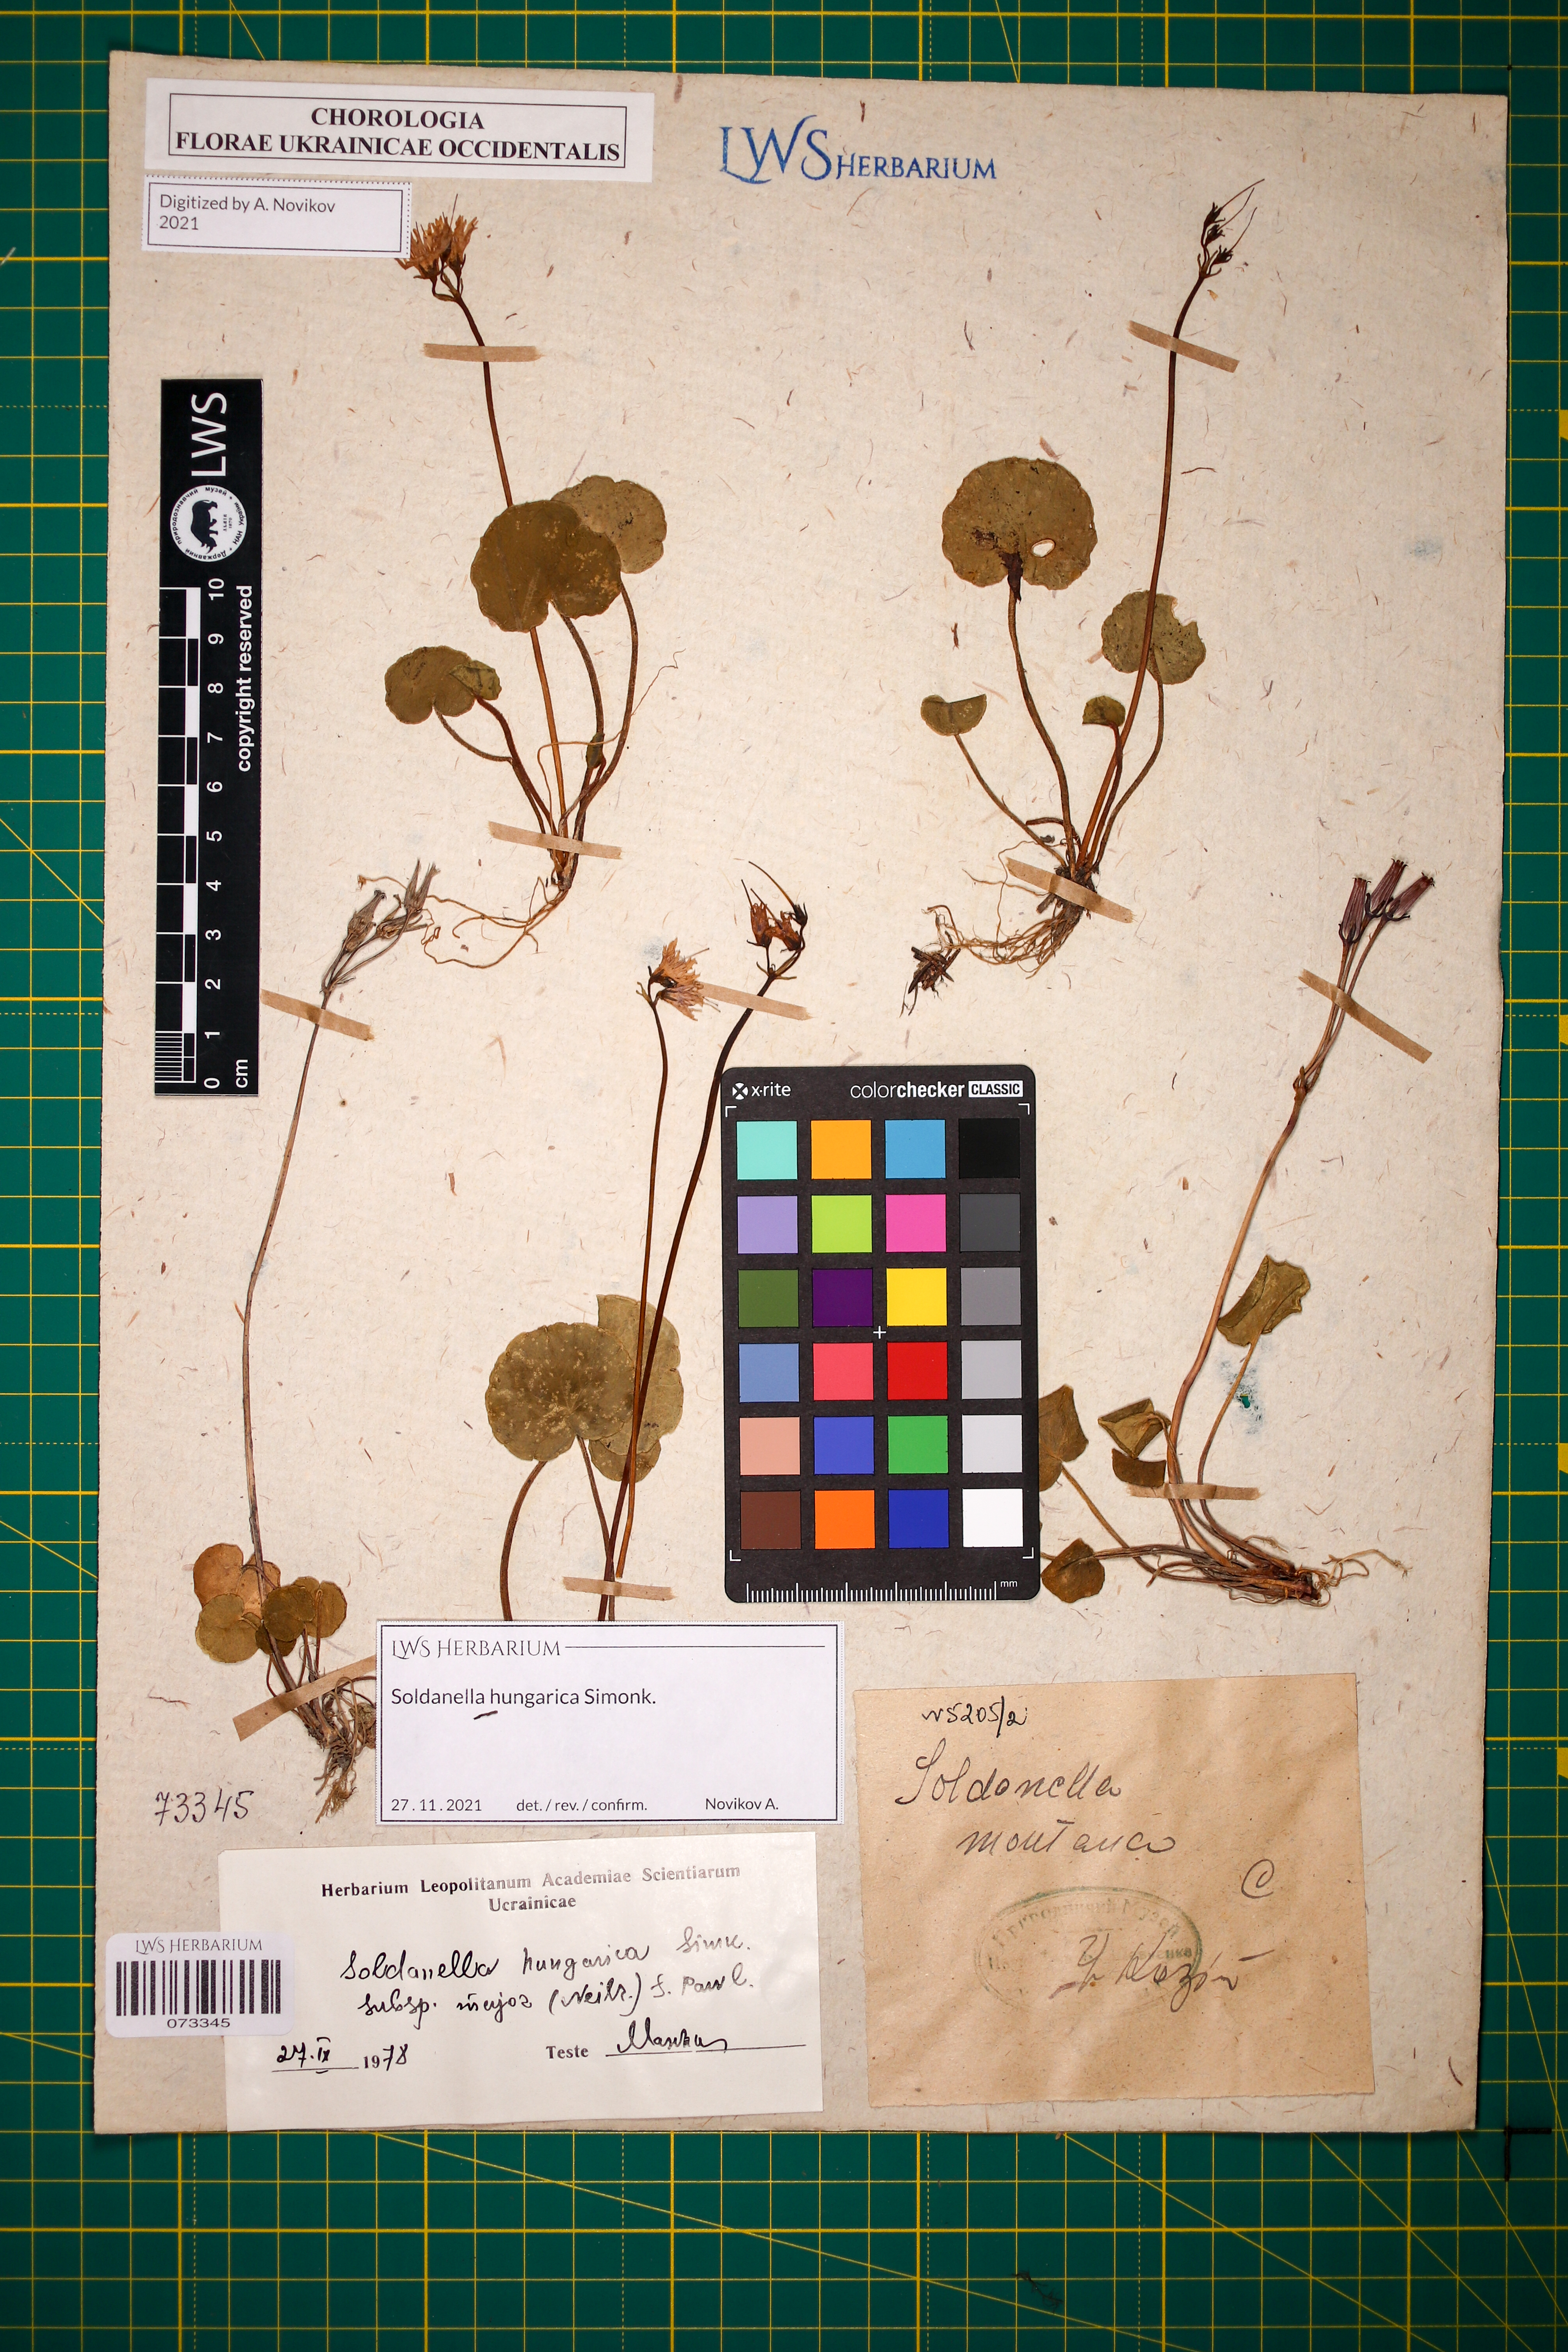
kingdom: Plantae
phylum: Tracheophyta
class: Magnoliopsida
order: Ericales
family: Primulaceae
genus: Soldanella
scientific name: Soldanella hungarica
